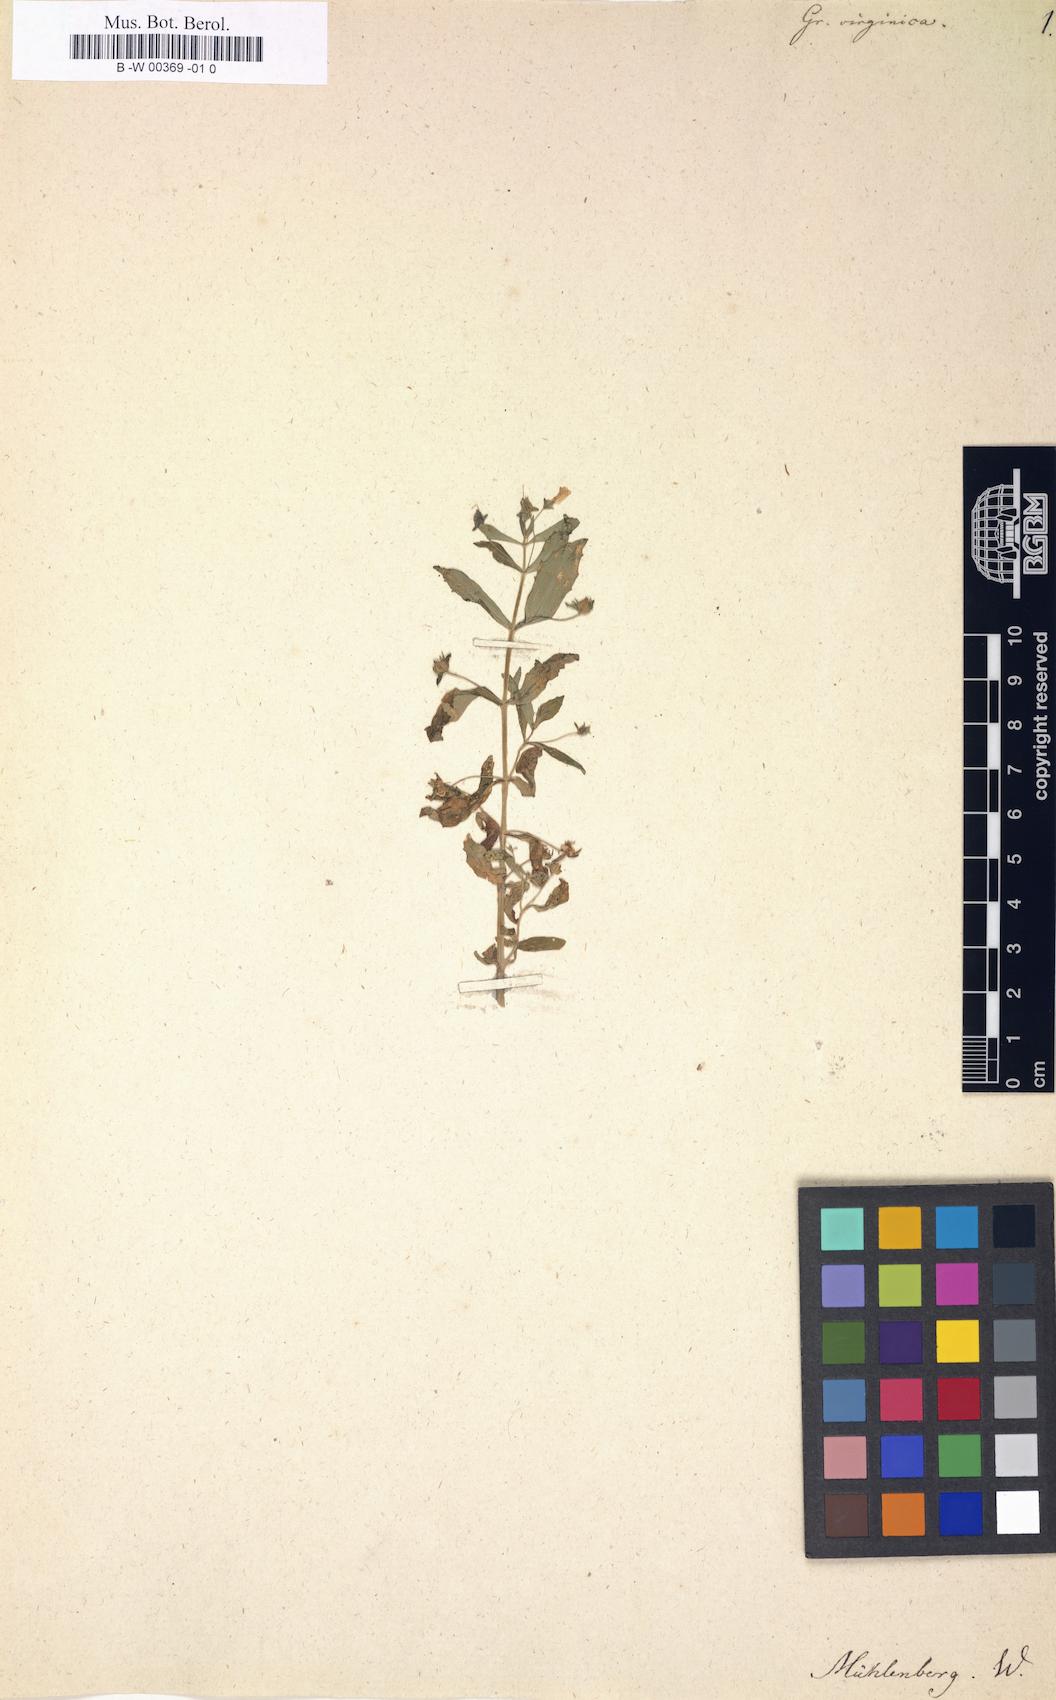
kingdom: Plantae
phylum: Tracheophyta
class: Magnoliopsida
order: Lamiales
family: Plantaginaceae
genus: Gratiola
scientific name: Gratiola virginiana
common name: Roundfruit hedgehyssop
